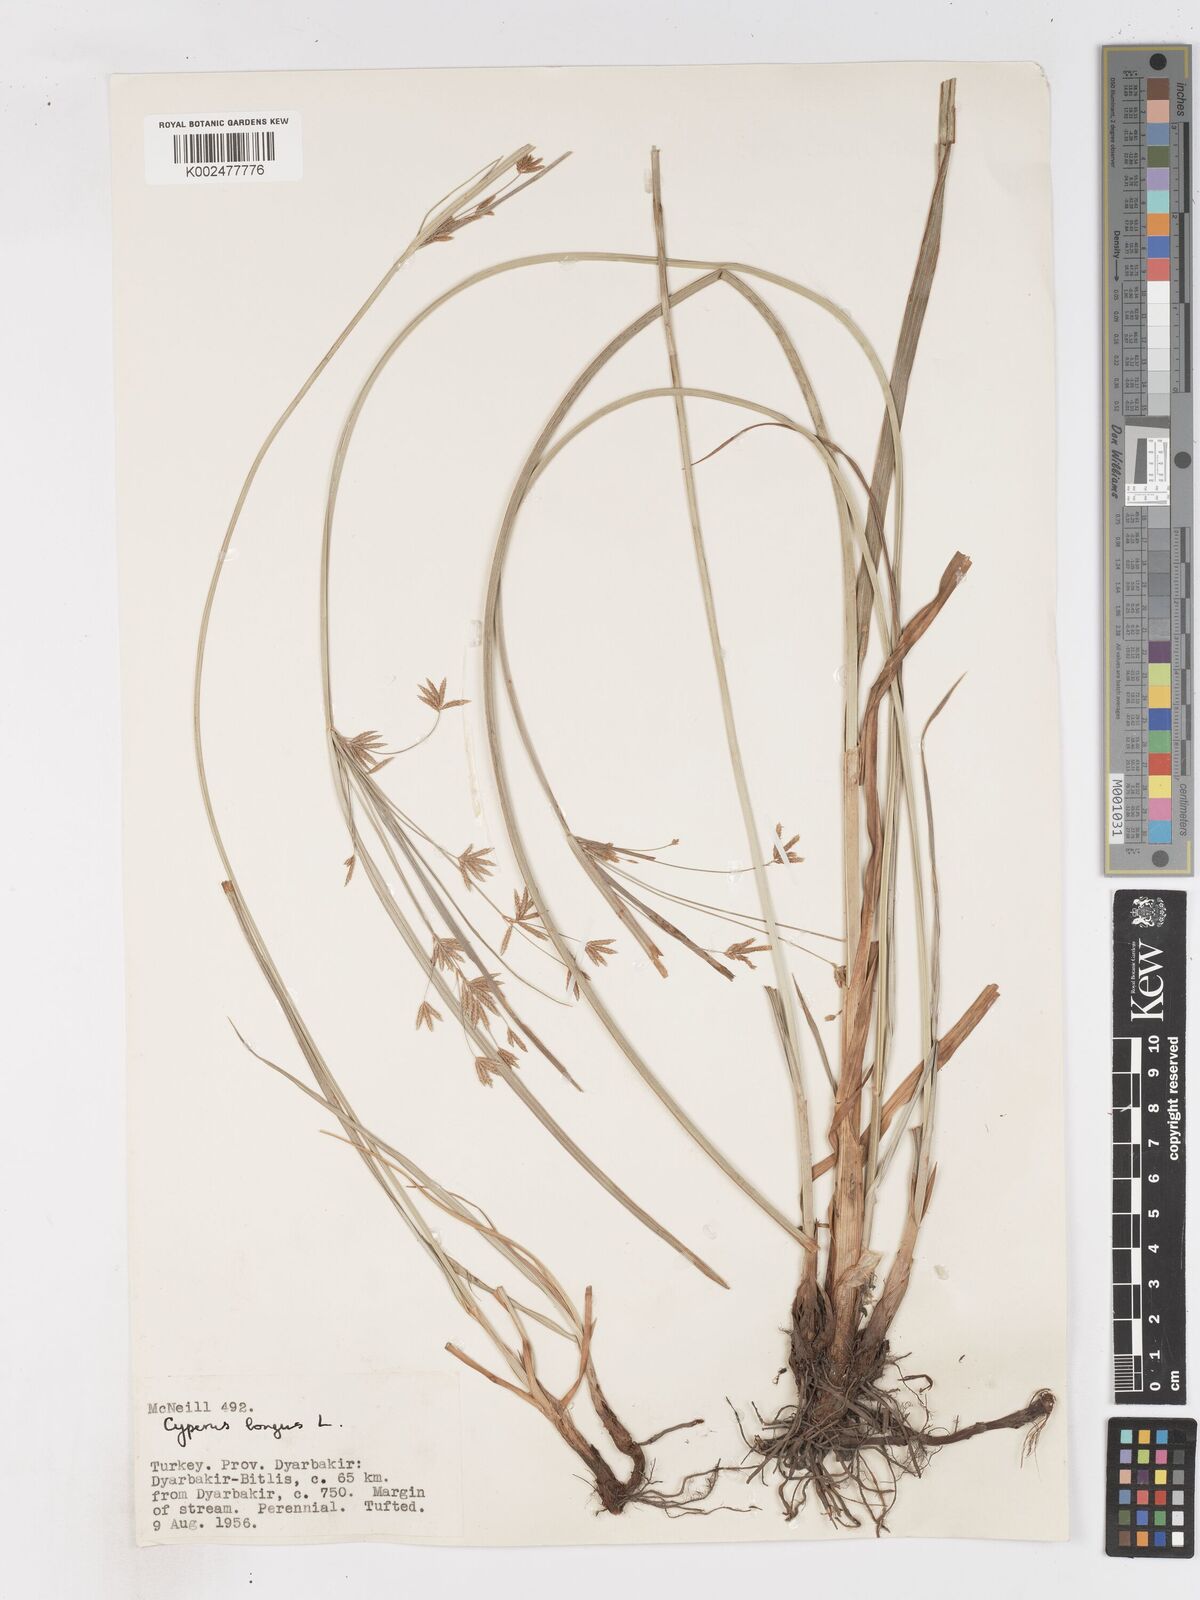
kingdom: Plantae
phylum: Tracheophyta
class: Liliopsida
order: Poales
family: Cyperaceae
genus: Cyperus
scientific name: Cyperus longus
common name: Galingale
